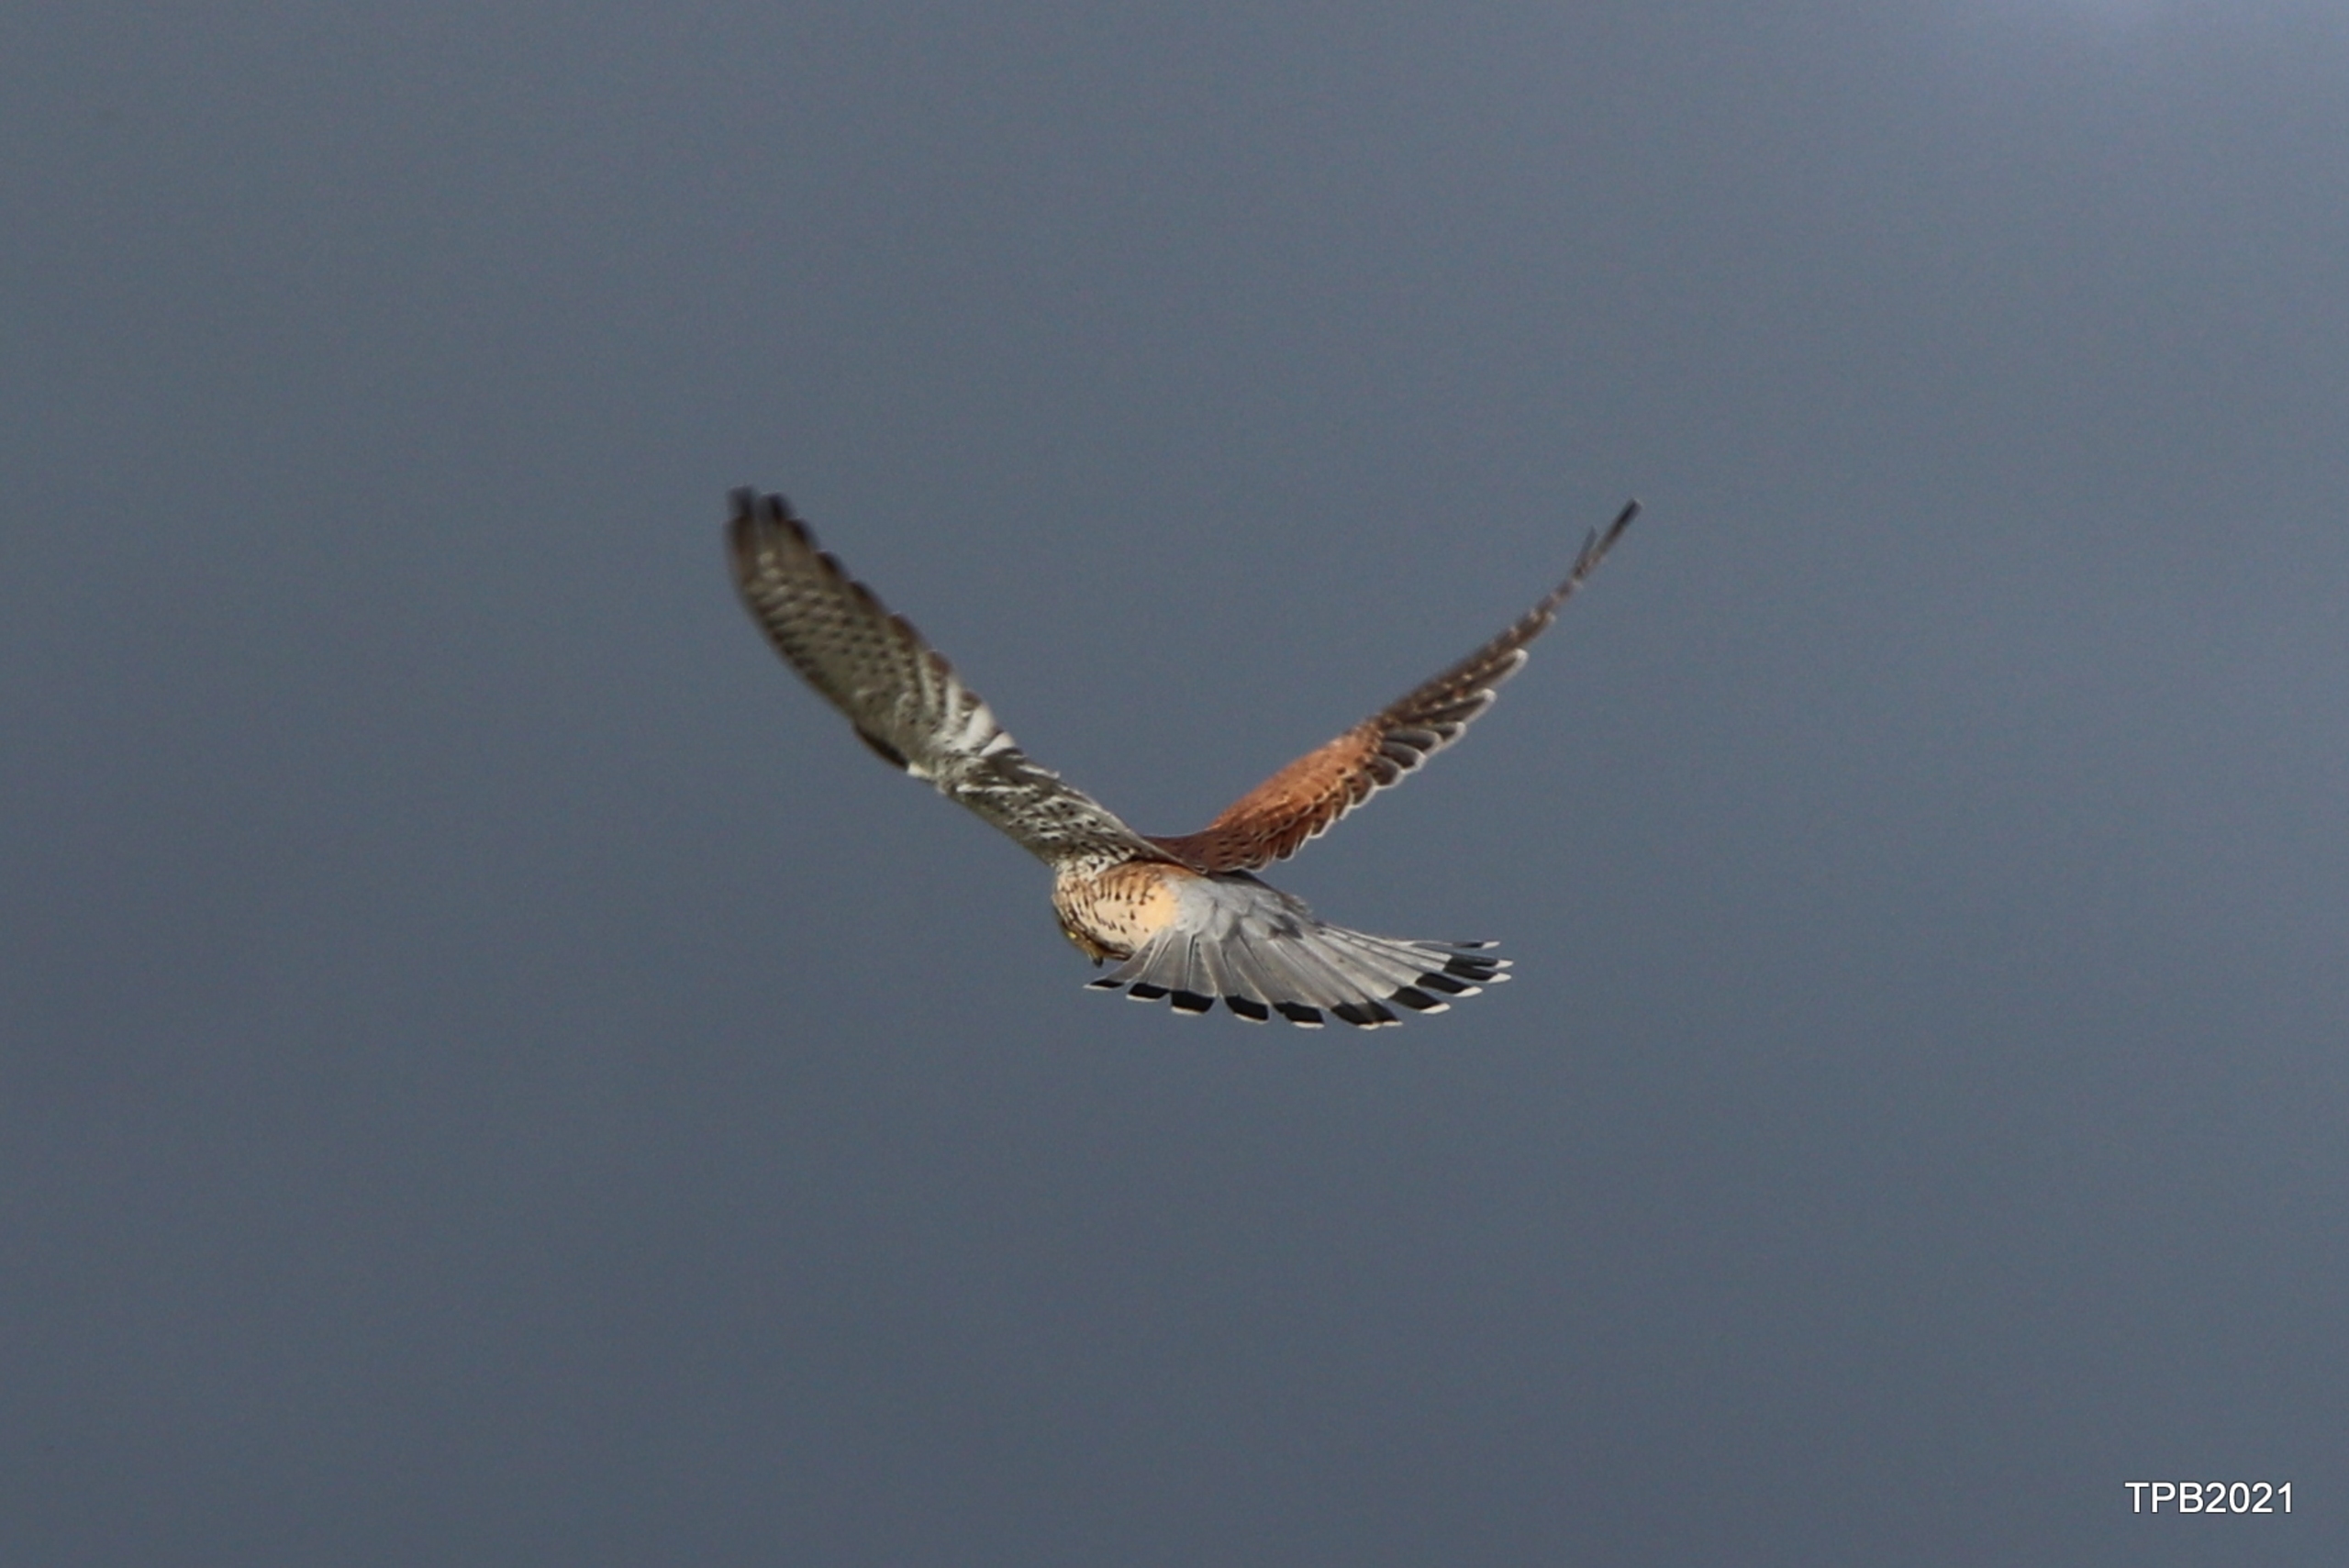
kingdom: Animalia
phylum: Chordata
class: Aves
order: Falconiformes
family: Falconidae
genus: Falco
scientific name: Falco tinnunculus
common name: Tårnfalk
